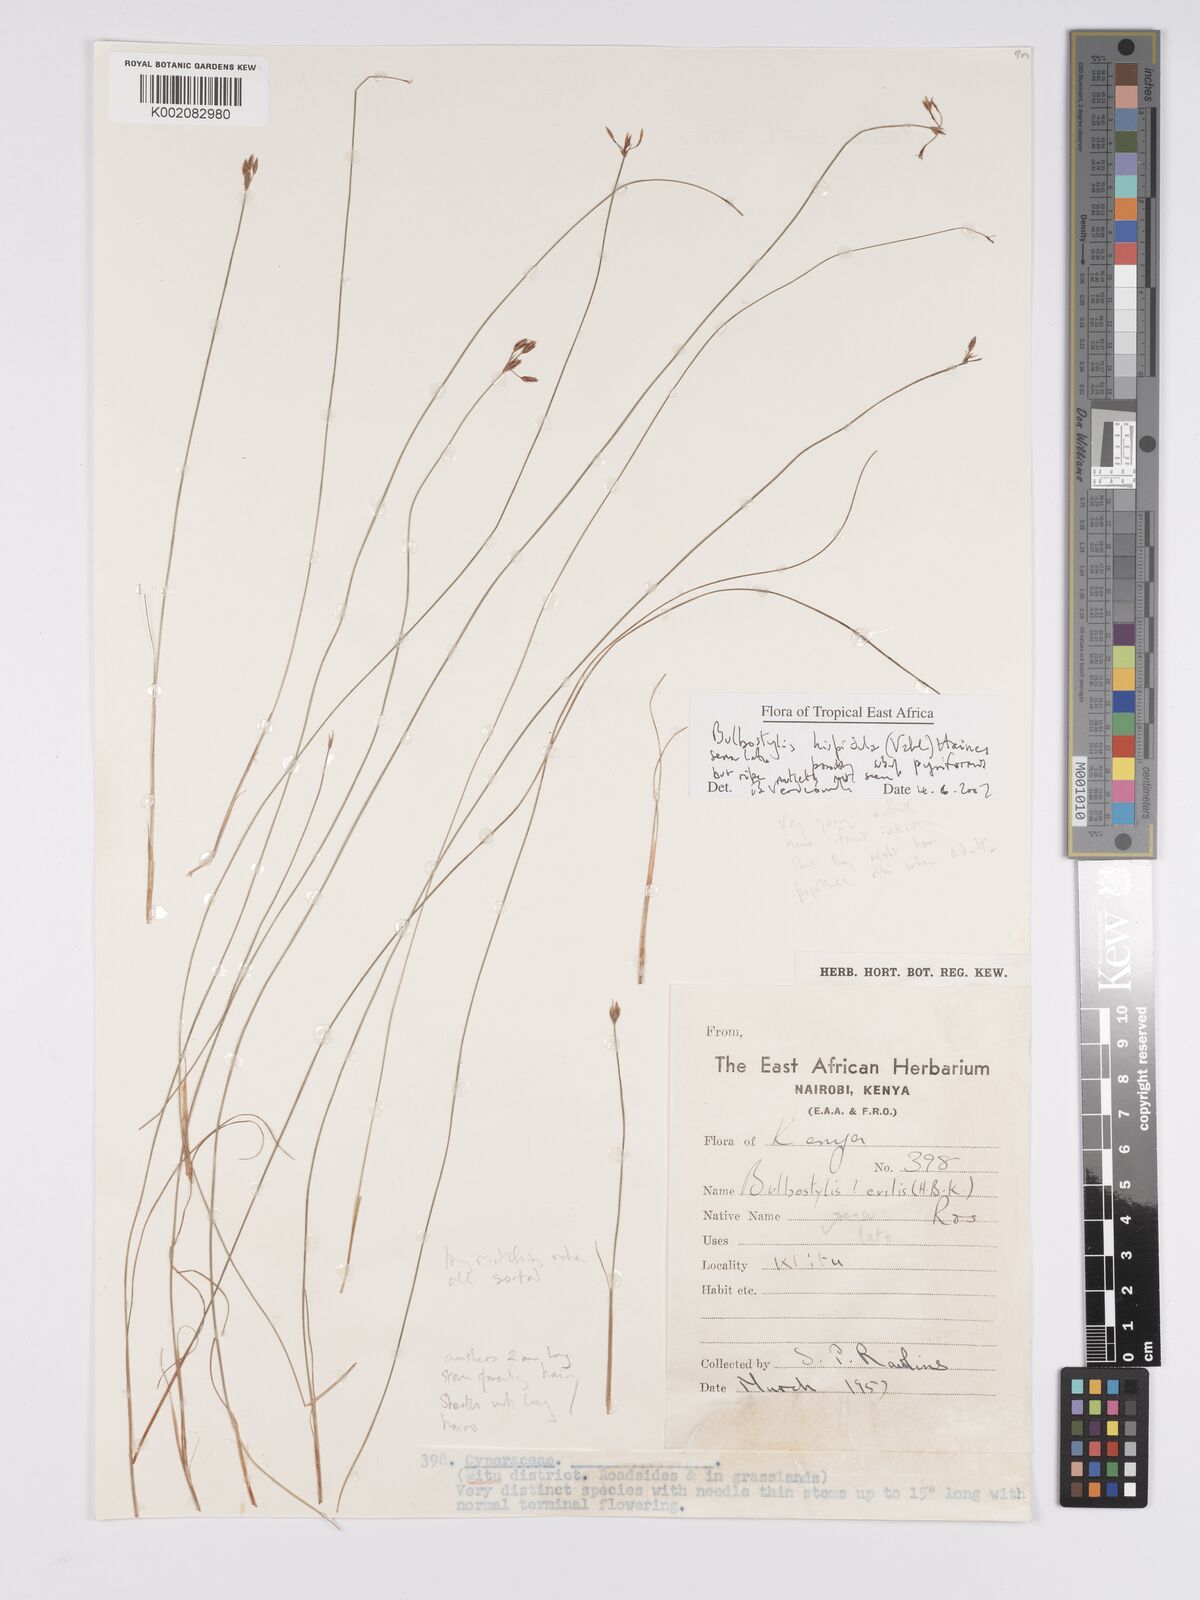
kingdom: Plantae
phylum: Tracheophyta
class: Liliopsida
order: Poales
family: Cyperaceae
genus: Bulbostylis
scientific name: Bulbostylis hispidula
